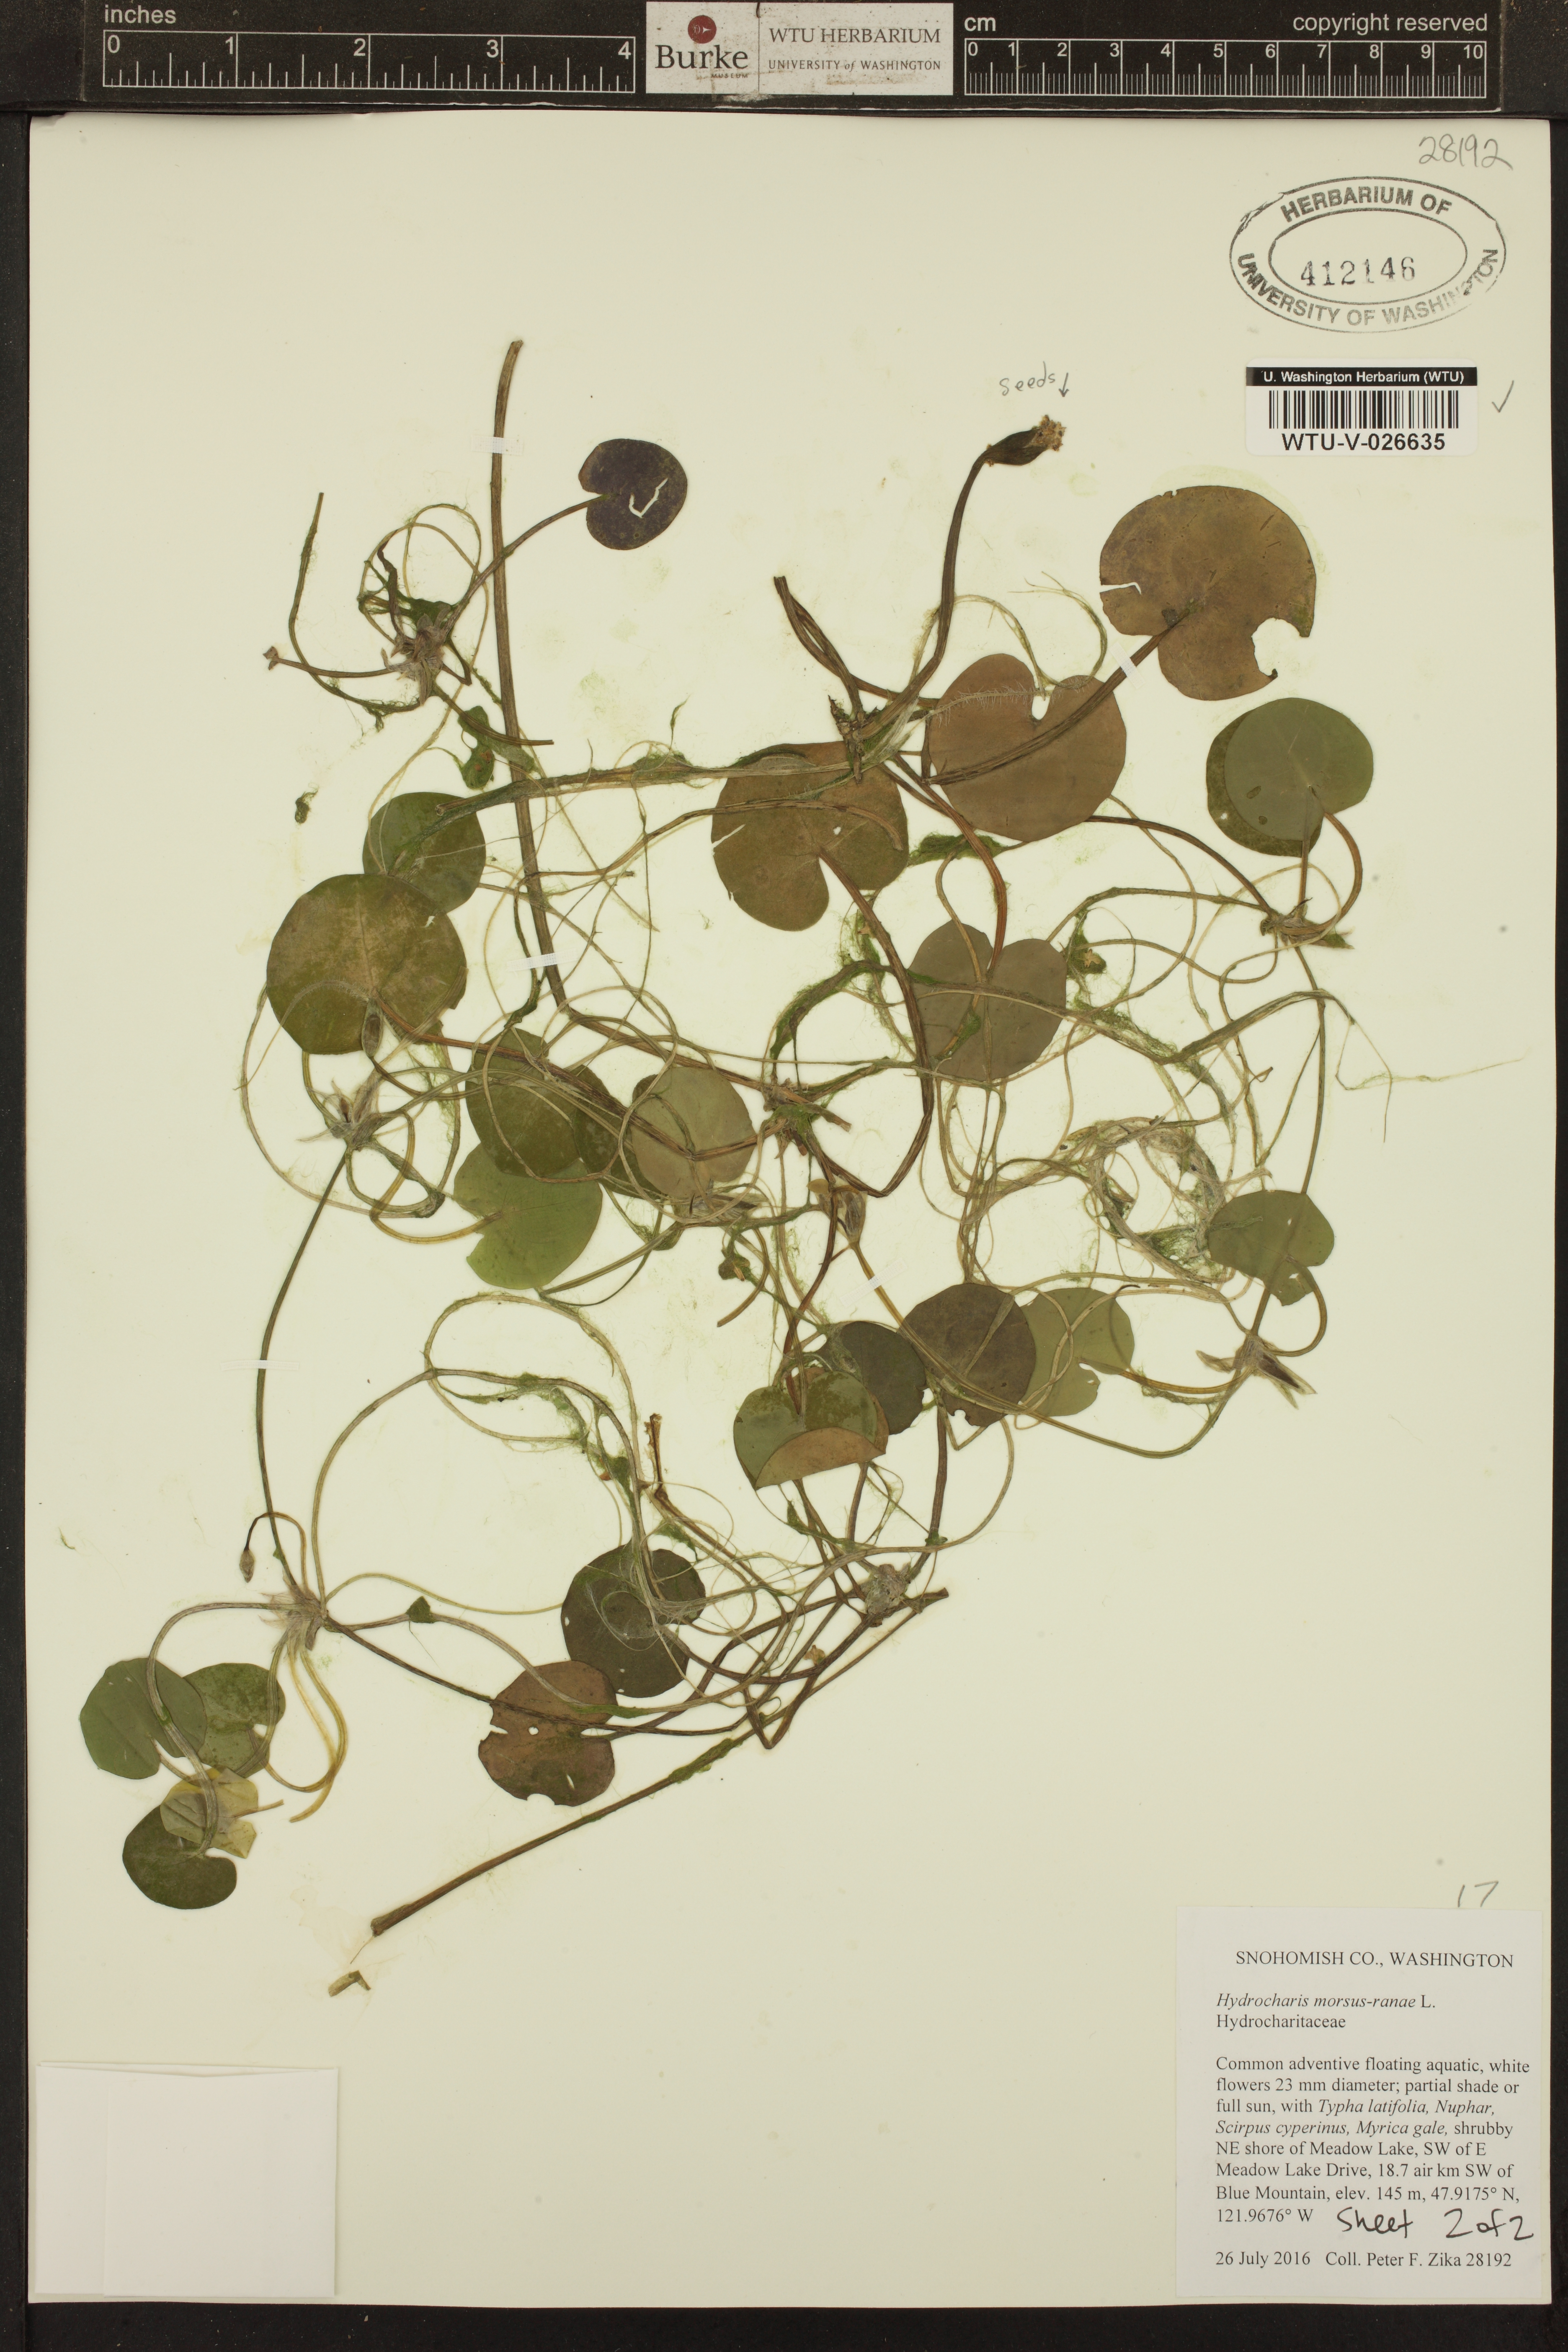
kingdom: Plantae
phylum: Tracheophyta
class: Liliopsida
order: Alismatales
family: Hydrocharitaceae
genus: Hydrocharis
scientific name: Hydrocharis morsus-ranae
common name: European frog-bit
